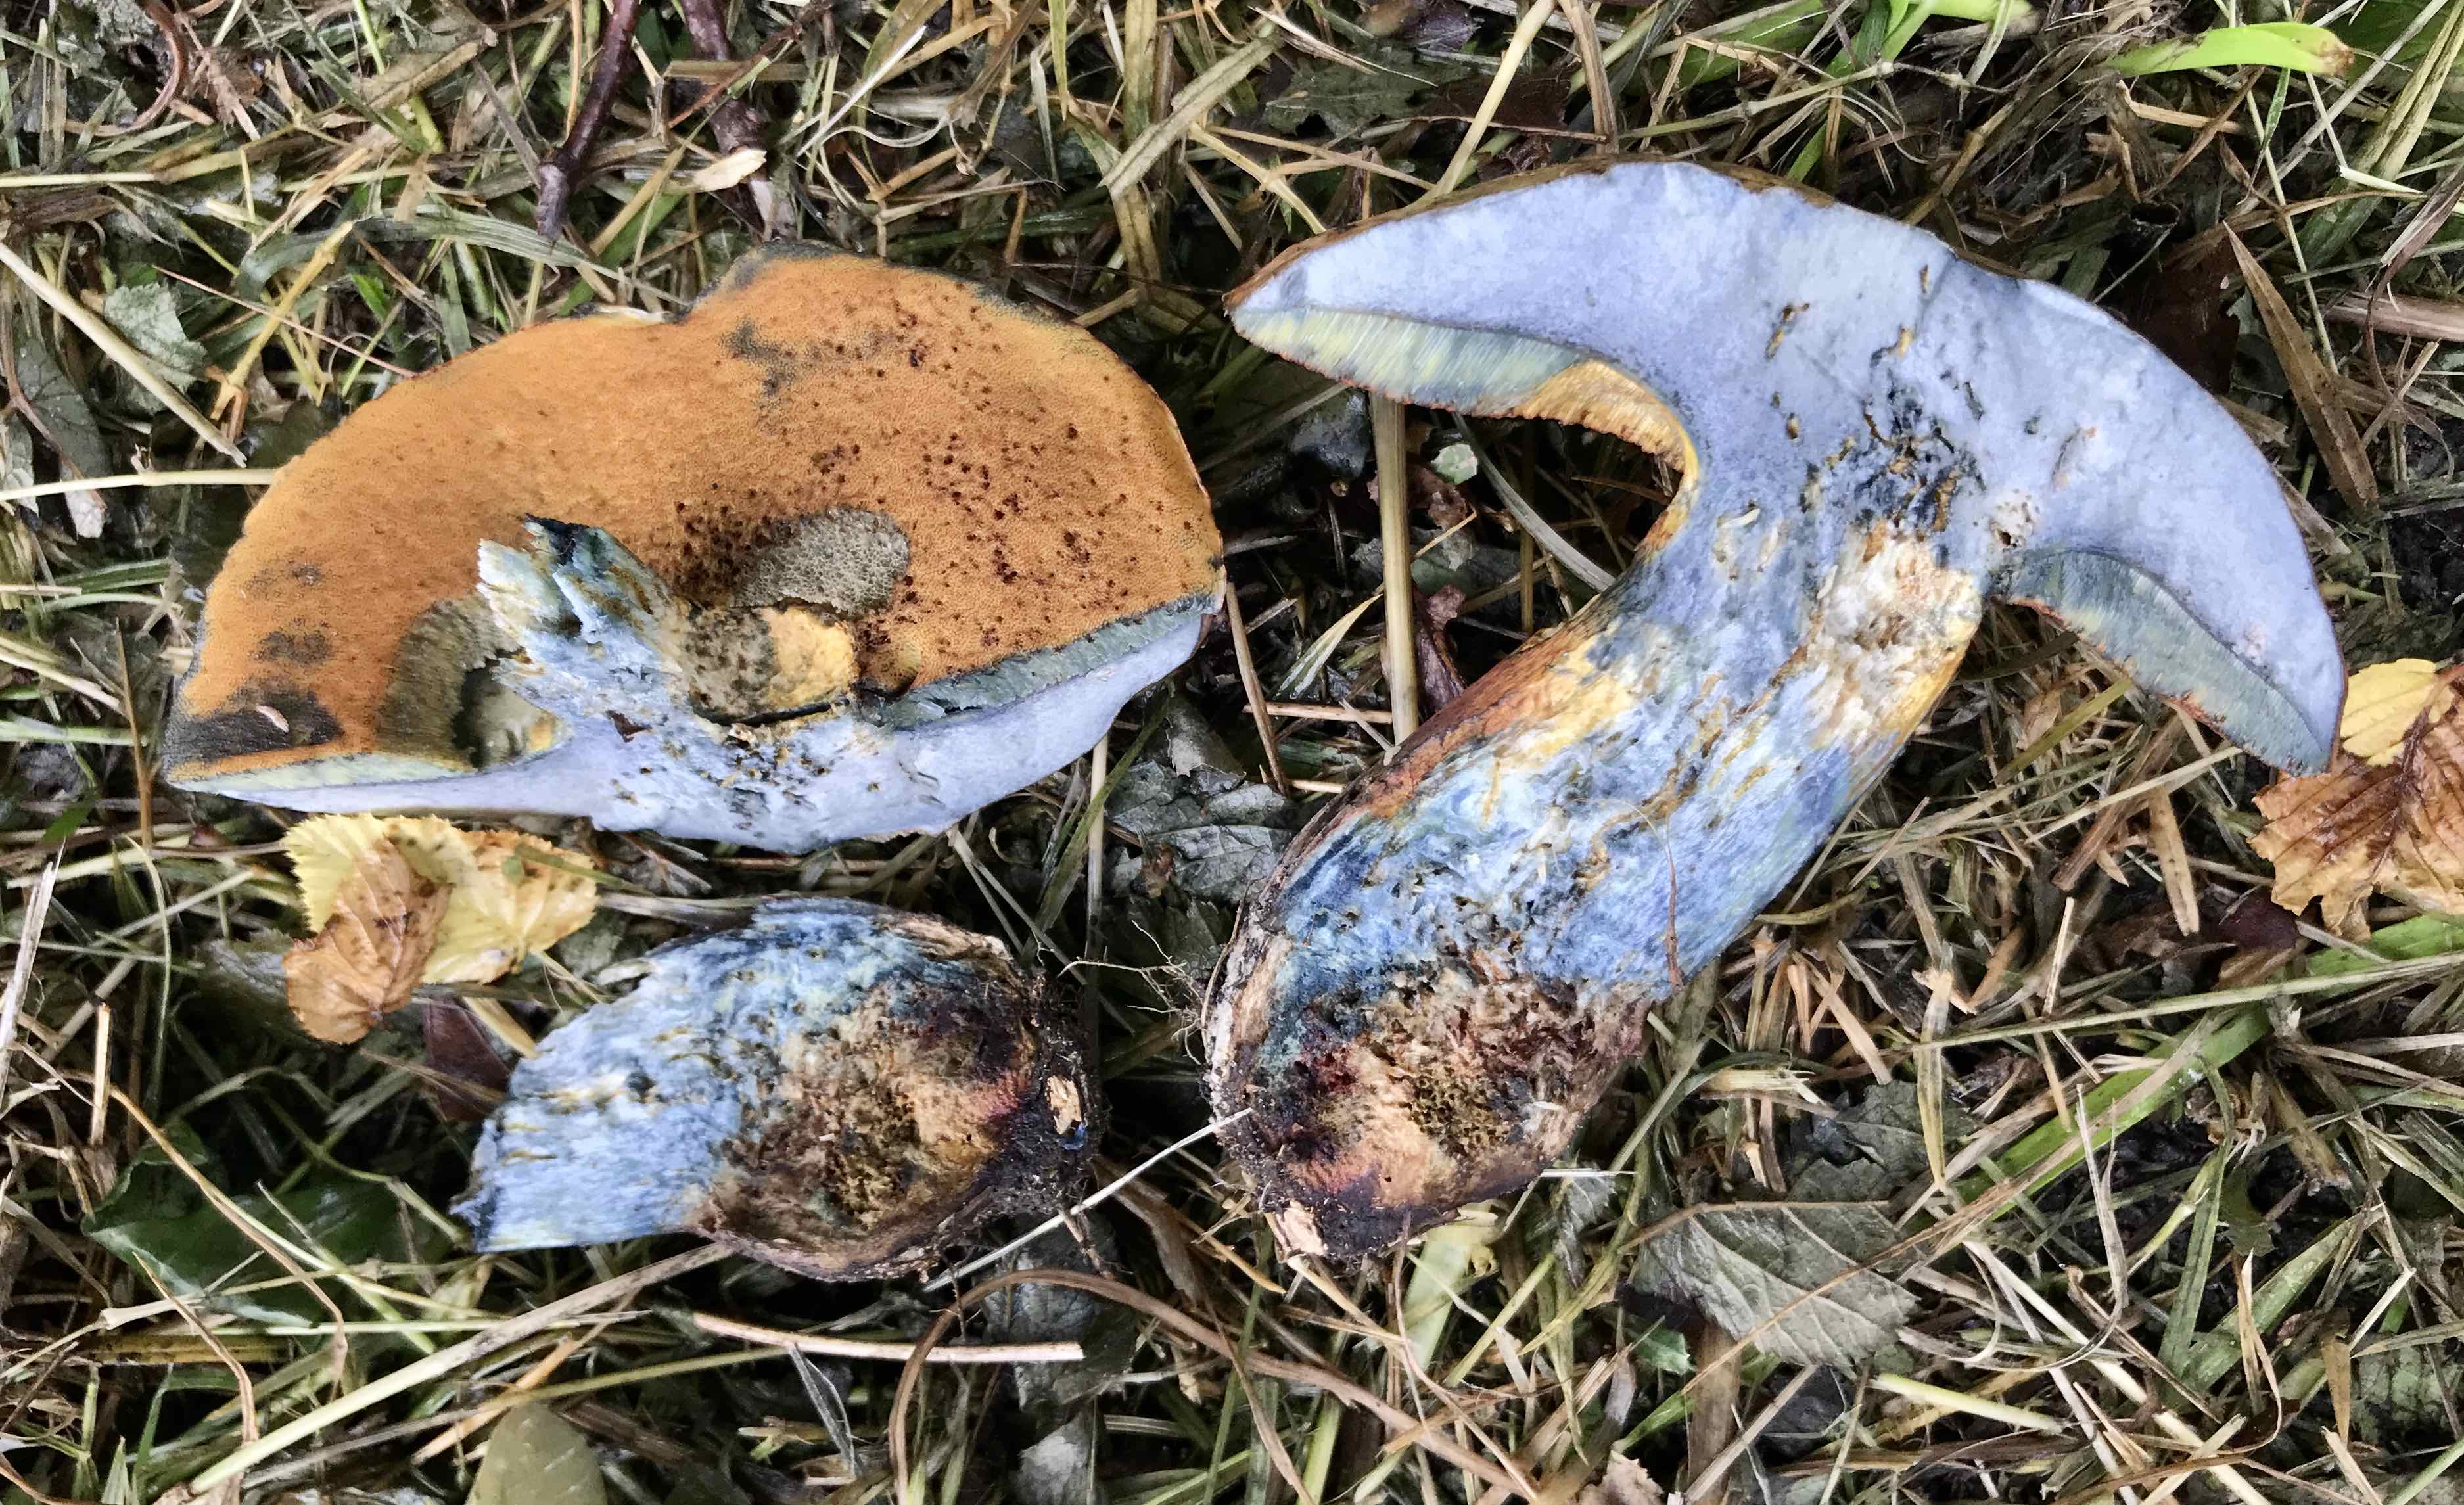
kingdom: Fungi
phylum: Basidiomycota
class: Agaricomycetes
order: Boletales
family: Boletaceae
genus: Suillellus
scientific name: Suillellus luridus
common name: netstokket indigorørhat
